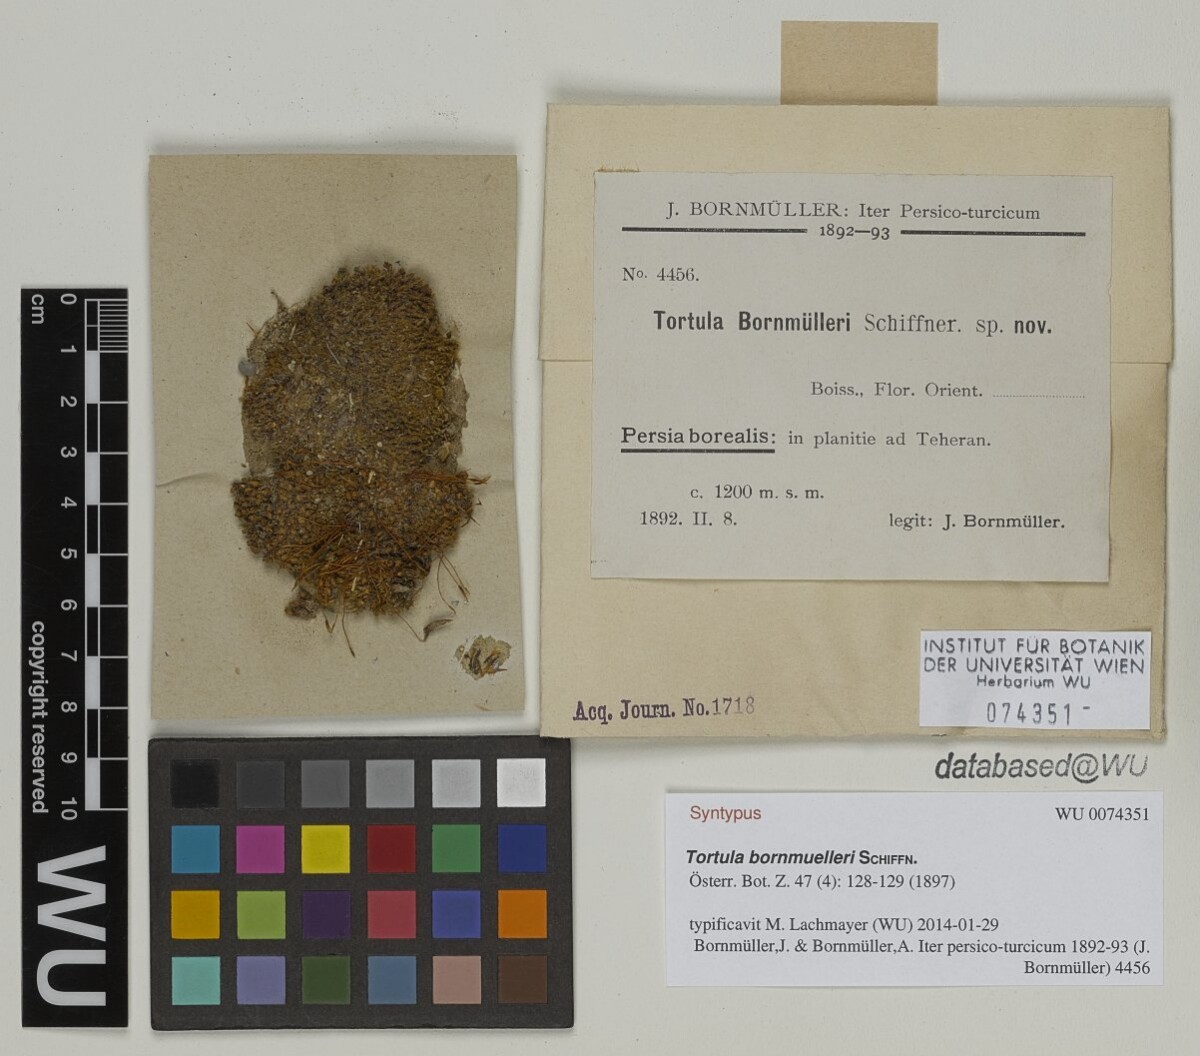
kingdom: Plantae
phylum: Bryophyta
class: Bryopsida
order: Pottiales
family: Pottiaceae
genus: Syntrichia
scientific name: Syntrichia caninervis
